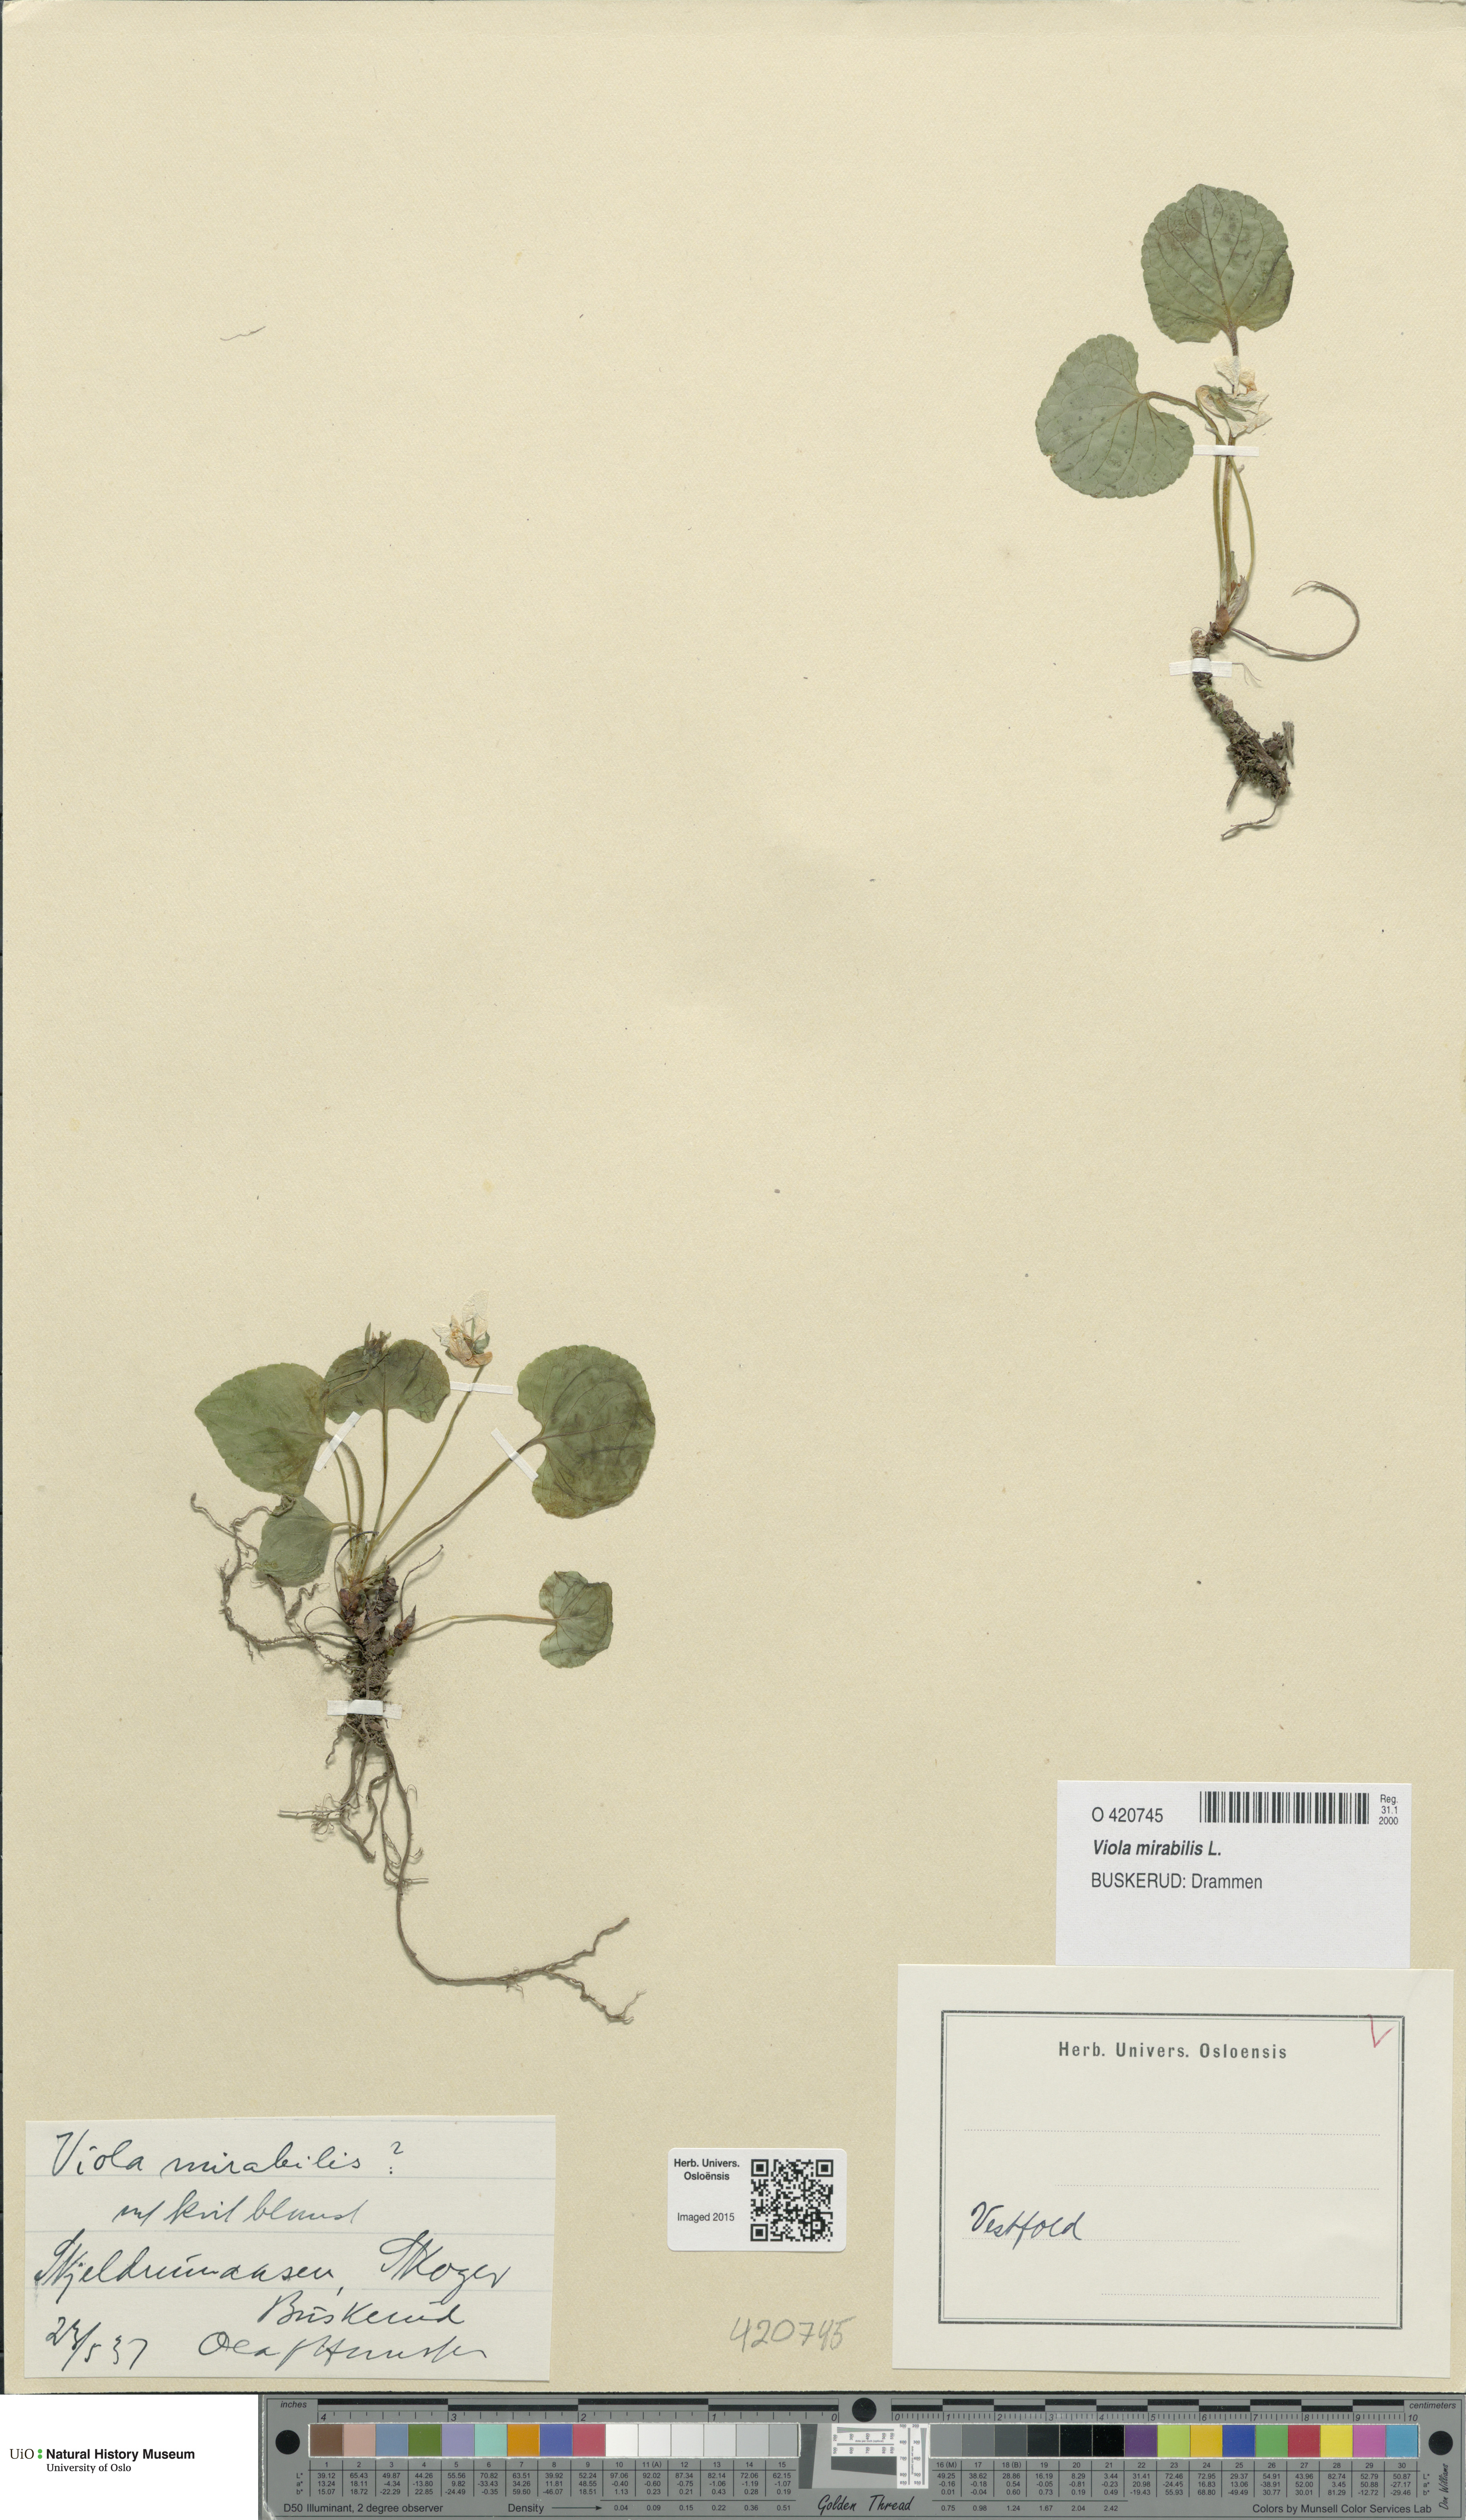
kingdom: Plantae
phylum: Tracheophyta
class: Magnoliopsida
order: Malpighiales
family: Violaceae
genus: Viola
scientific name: Viola mirabilis
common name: Wonder violet
